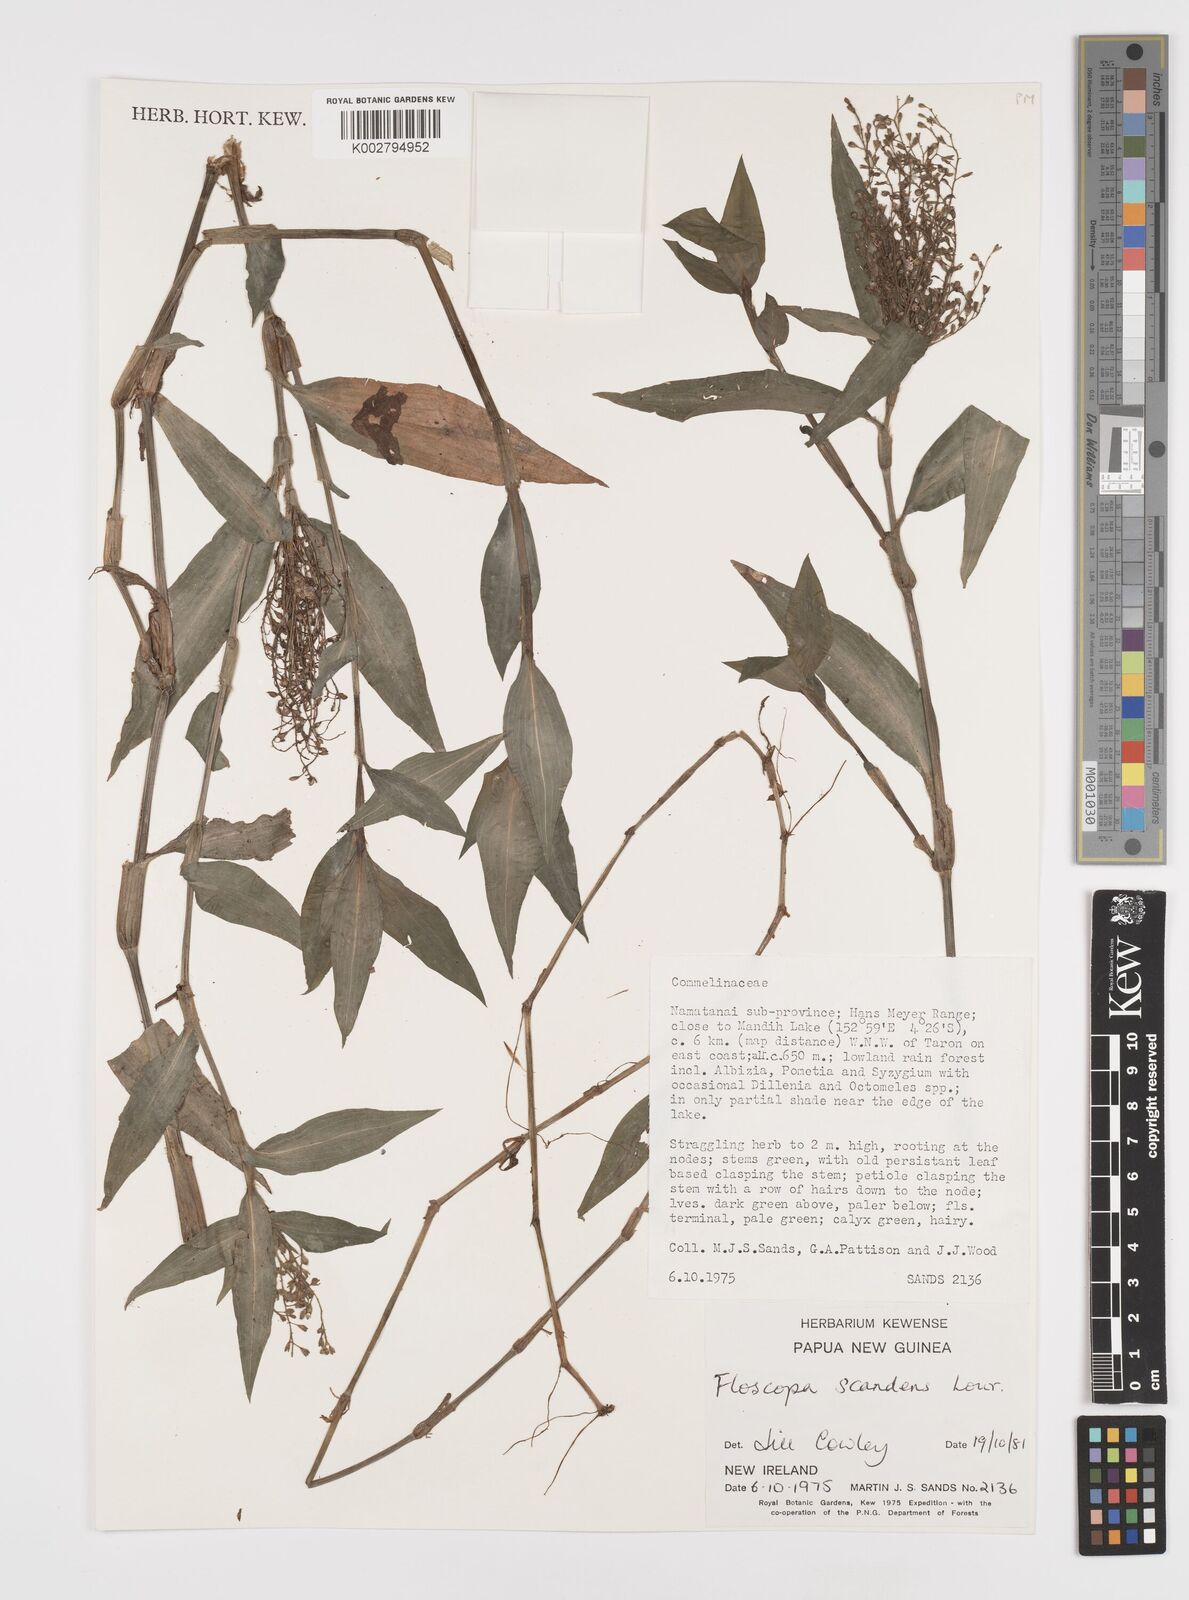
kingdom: Plantae
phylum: Tracheophyta
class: Liliopsida
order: Commelinales
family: Commelinaceae
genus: Floscopa
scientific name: Floscopa scandens
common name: Climbing flower cup
